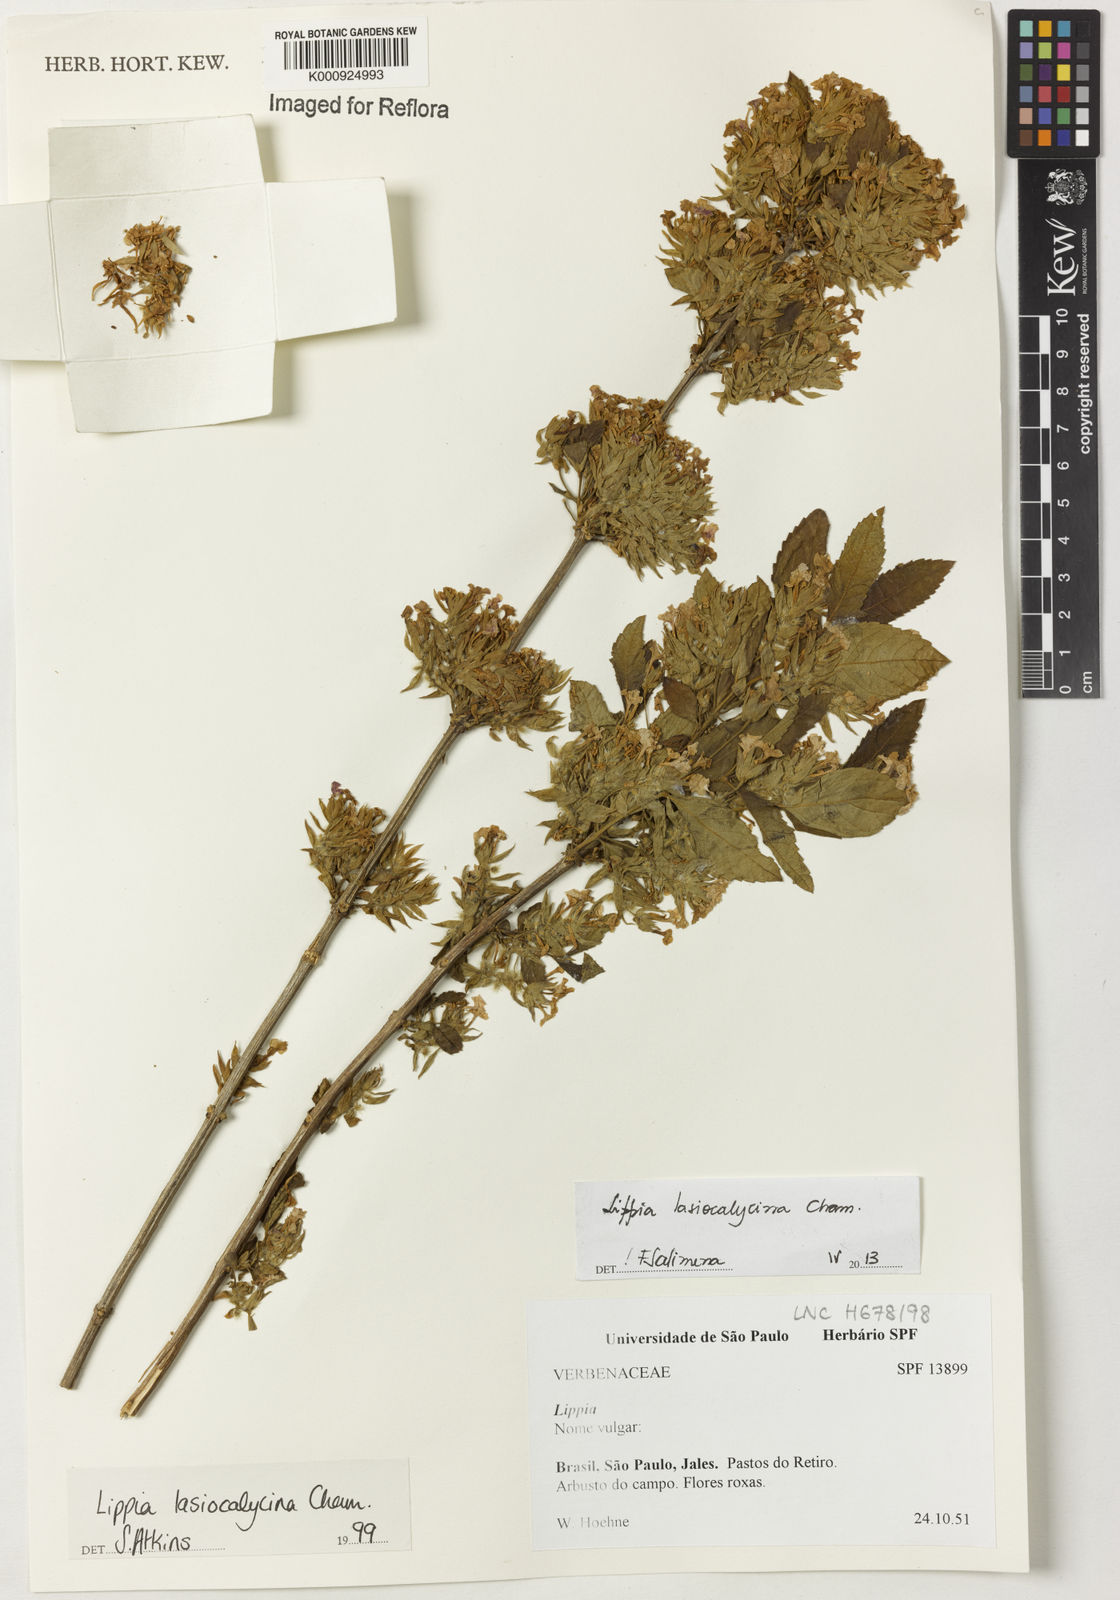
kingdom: Plantae
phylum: Tracheophyta
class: Magnoliopsida
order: Lamiales
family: Verbenaceae
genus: Lippia
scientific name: Lippia lasiocalycina
